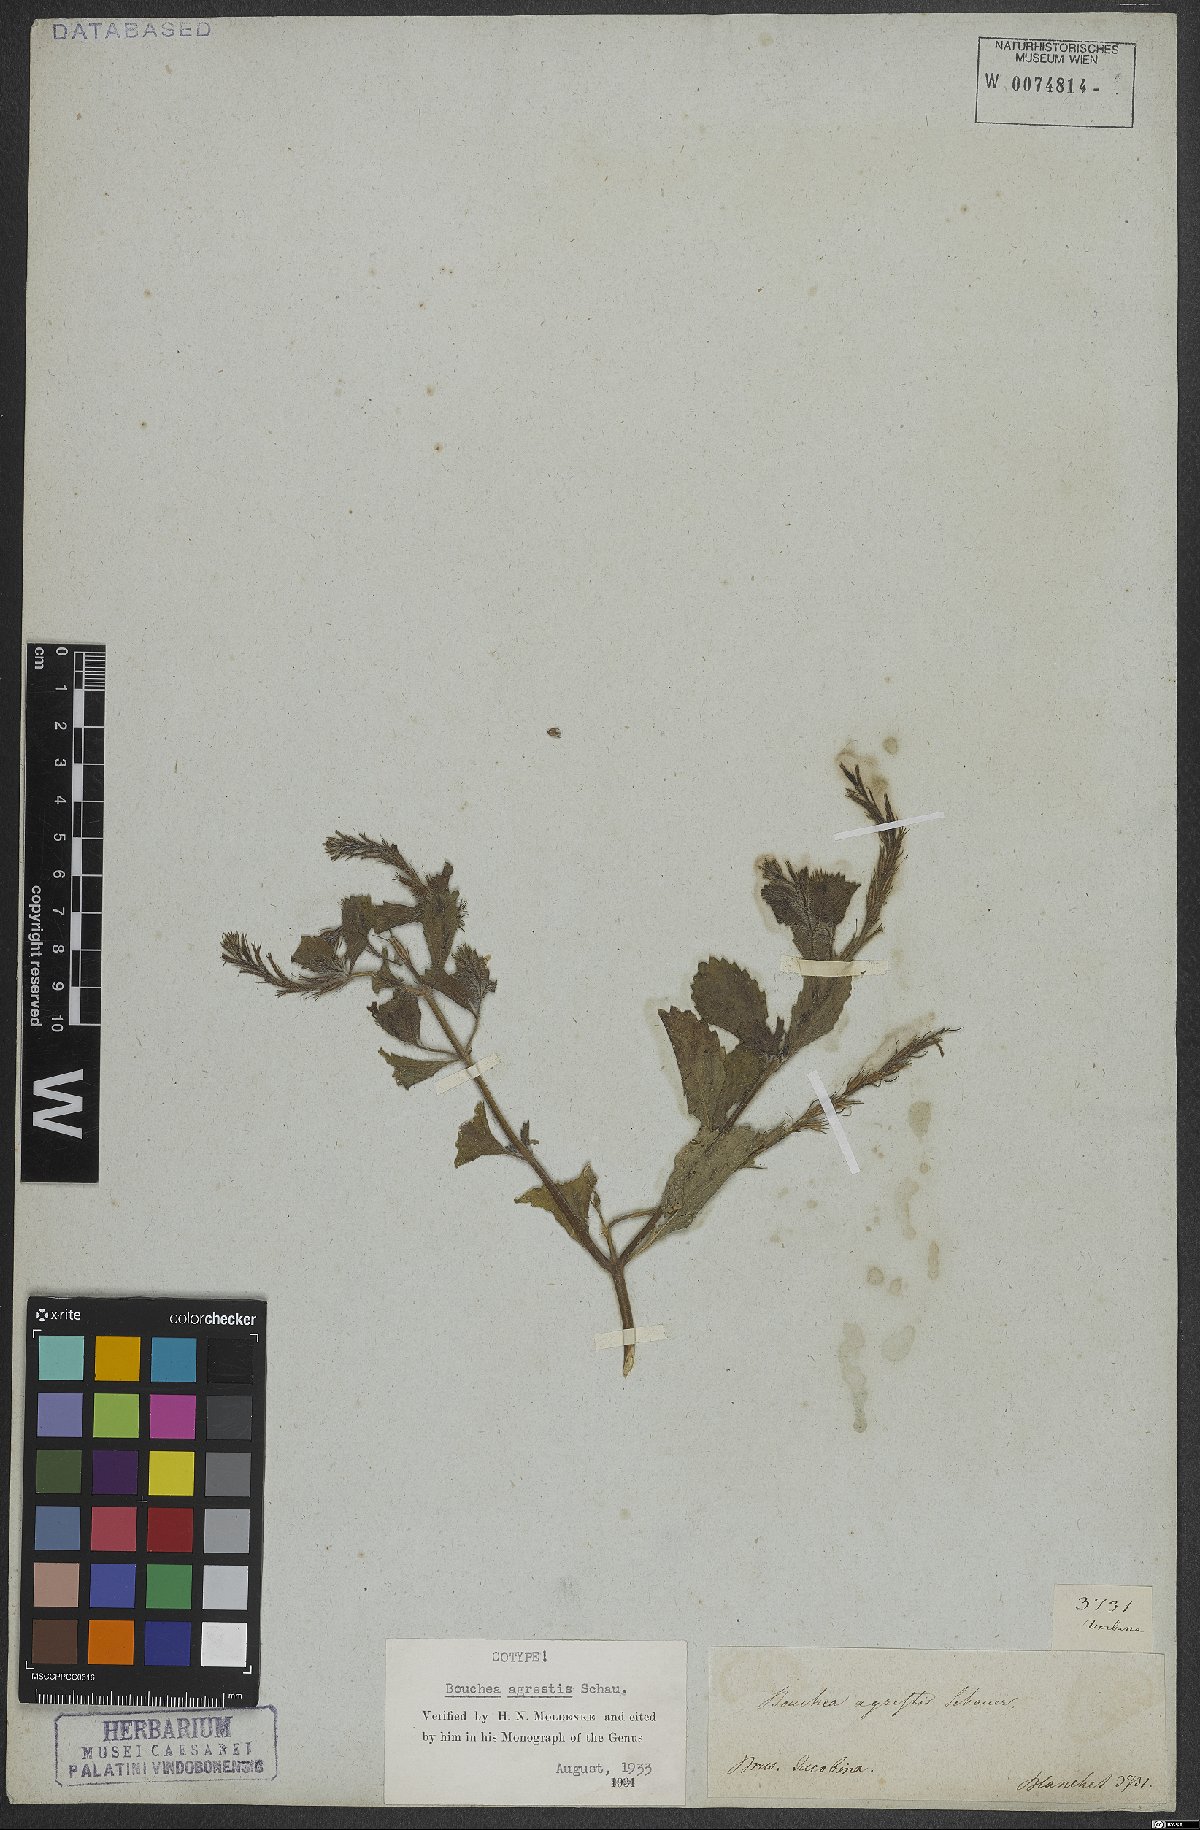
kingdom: Plantae
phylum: Tracheophyta
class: Magnoliopsida
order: Lamiales
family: Verbenaceae
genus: Bouchea
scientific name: Bouchea agrestis
